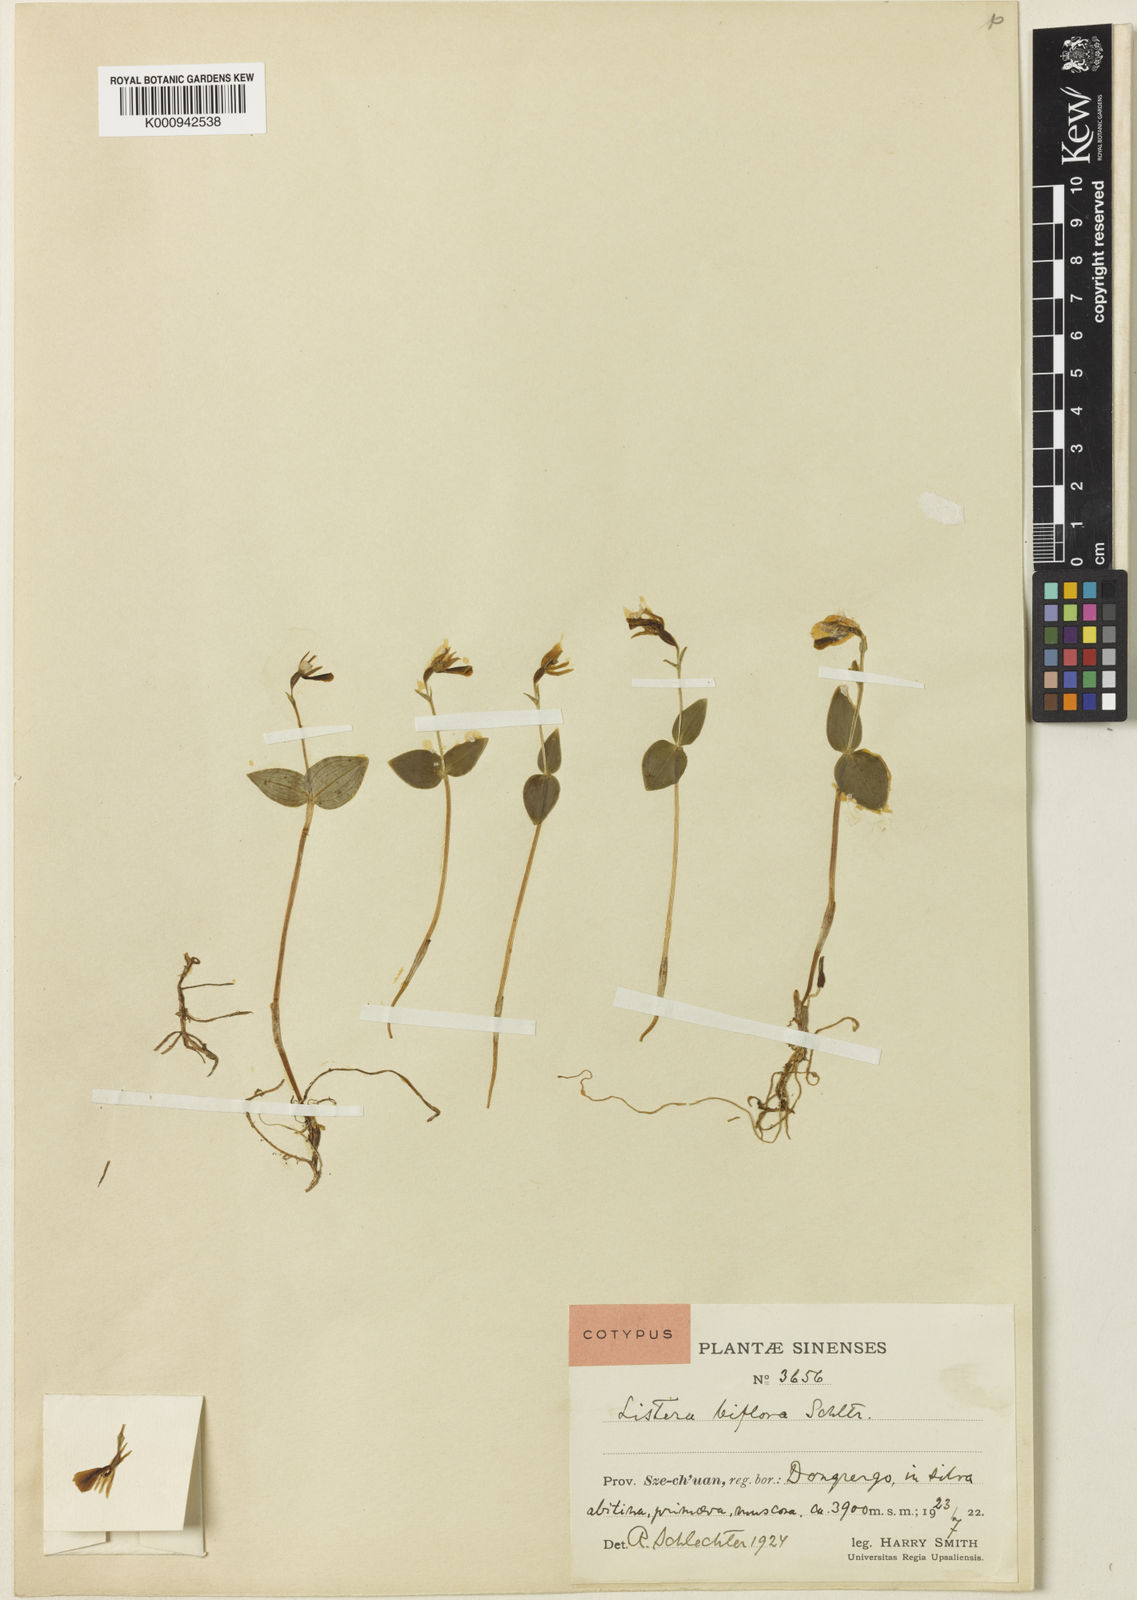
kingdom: Plantae
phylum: Tracheophyta
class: Liliopsida
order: Asparagales
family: Orchidaceae
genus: Neottia
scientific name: Neottia biflora
